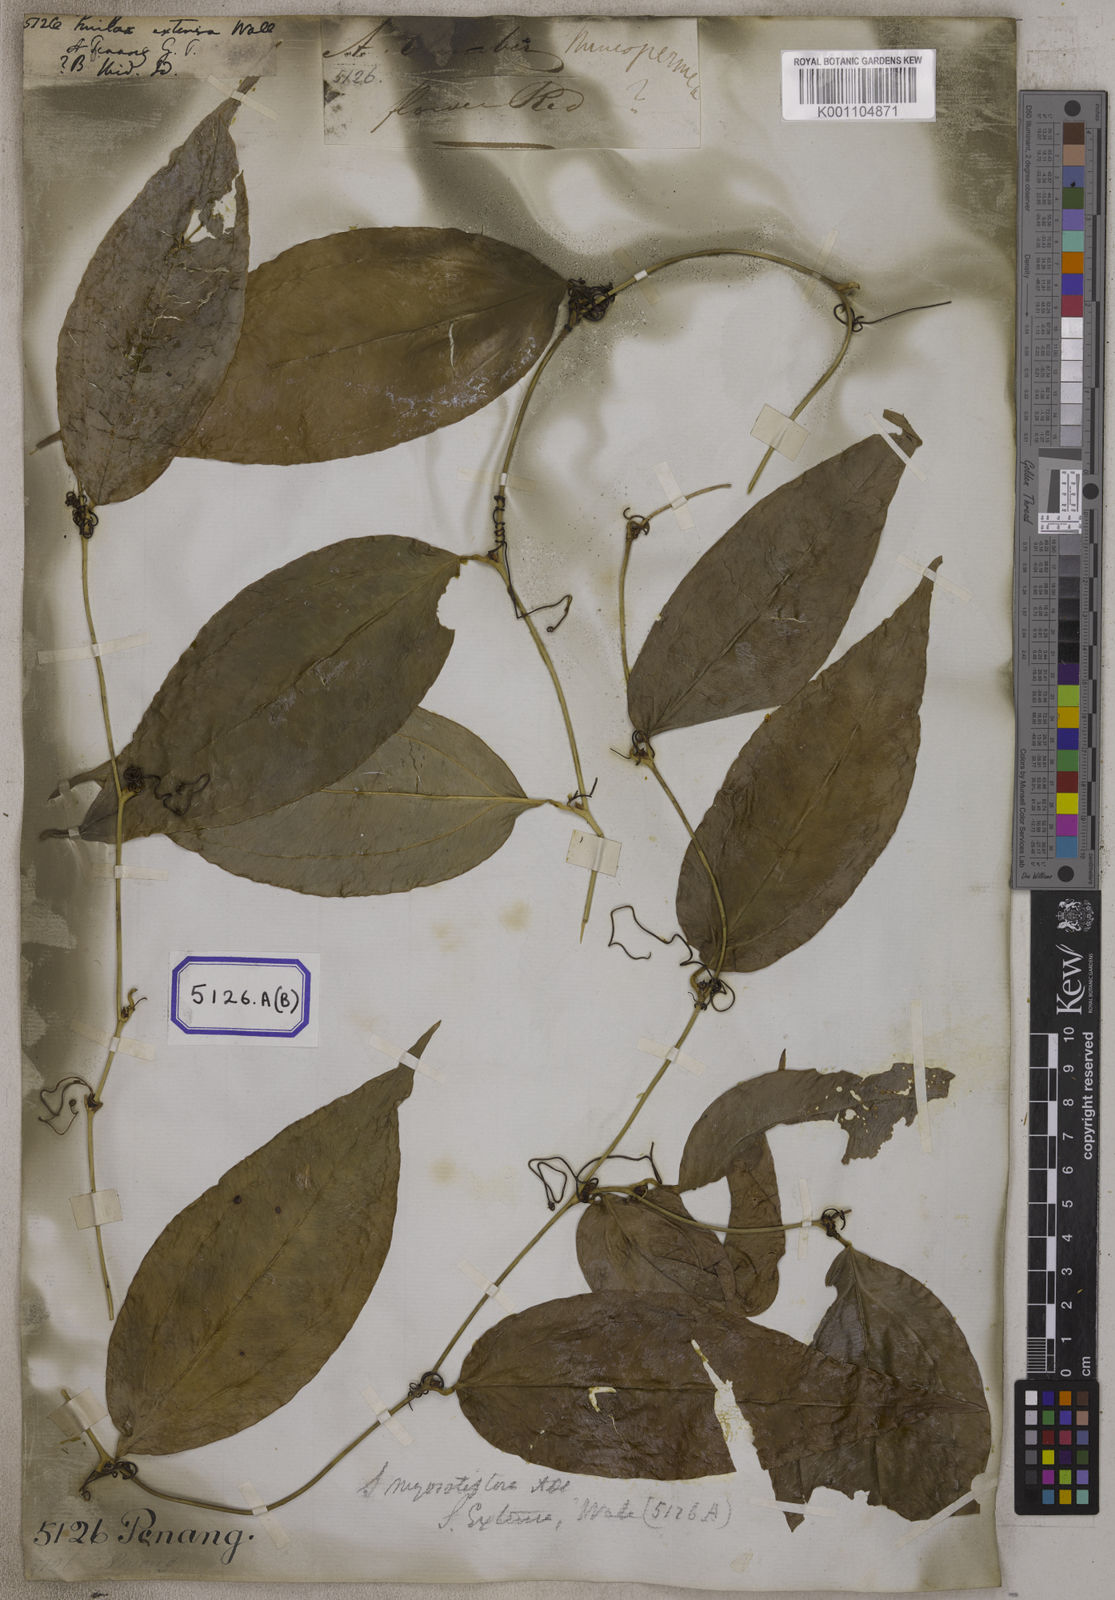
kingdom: Plantae
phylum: Tracheophyta
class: Liliopsida
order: Liliales
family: Smilacaceae
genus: Smilax
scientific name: Smilax
